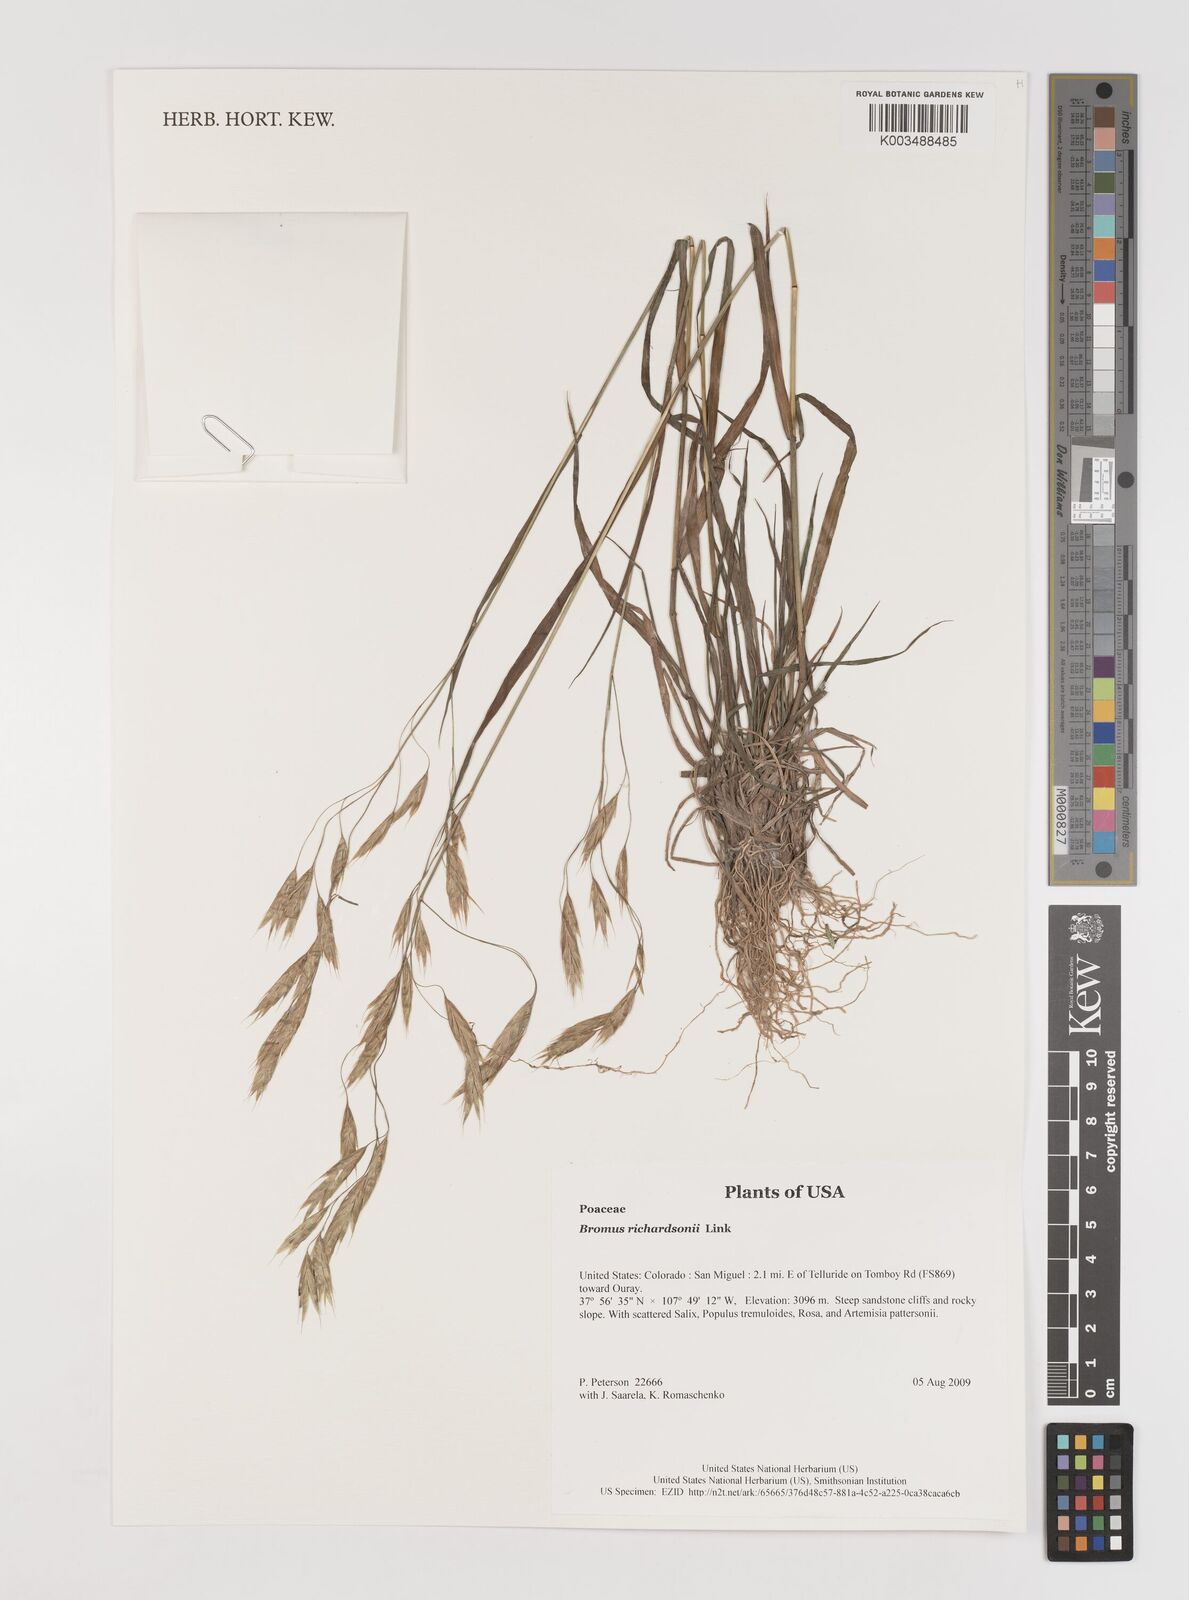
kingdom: Plantae
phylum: Tracheophyta
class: Liliopsida
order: Poales
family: Poaceae
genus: Bromus
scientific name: Bromus richardsonii
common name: Richardson's brome
